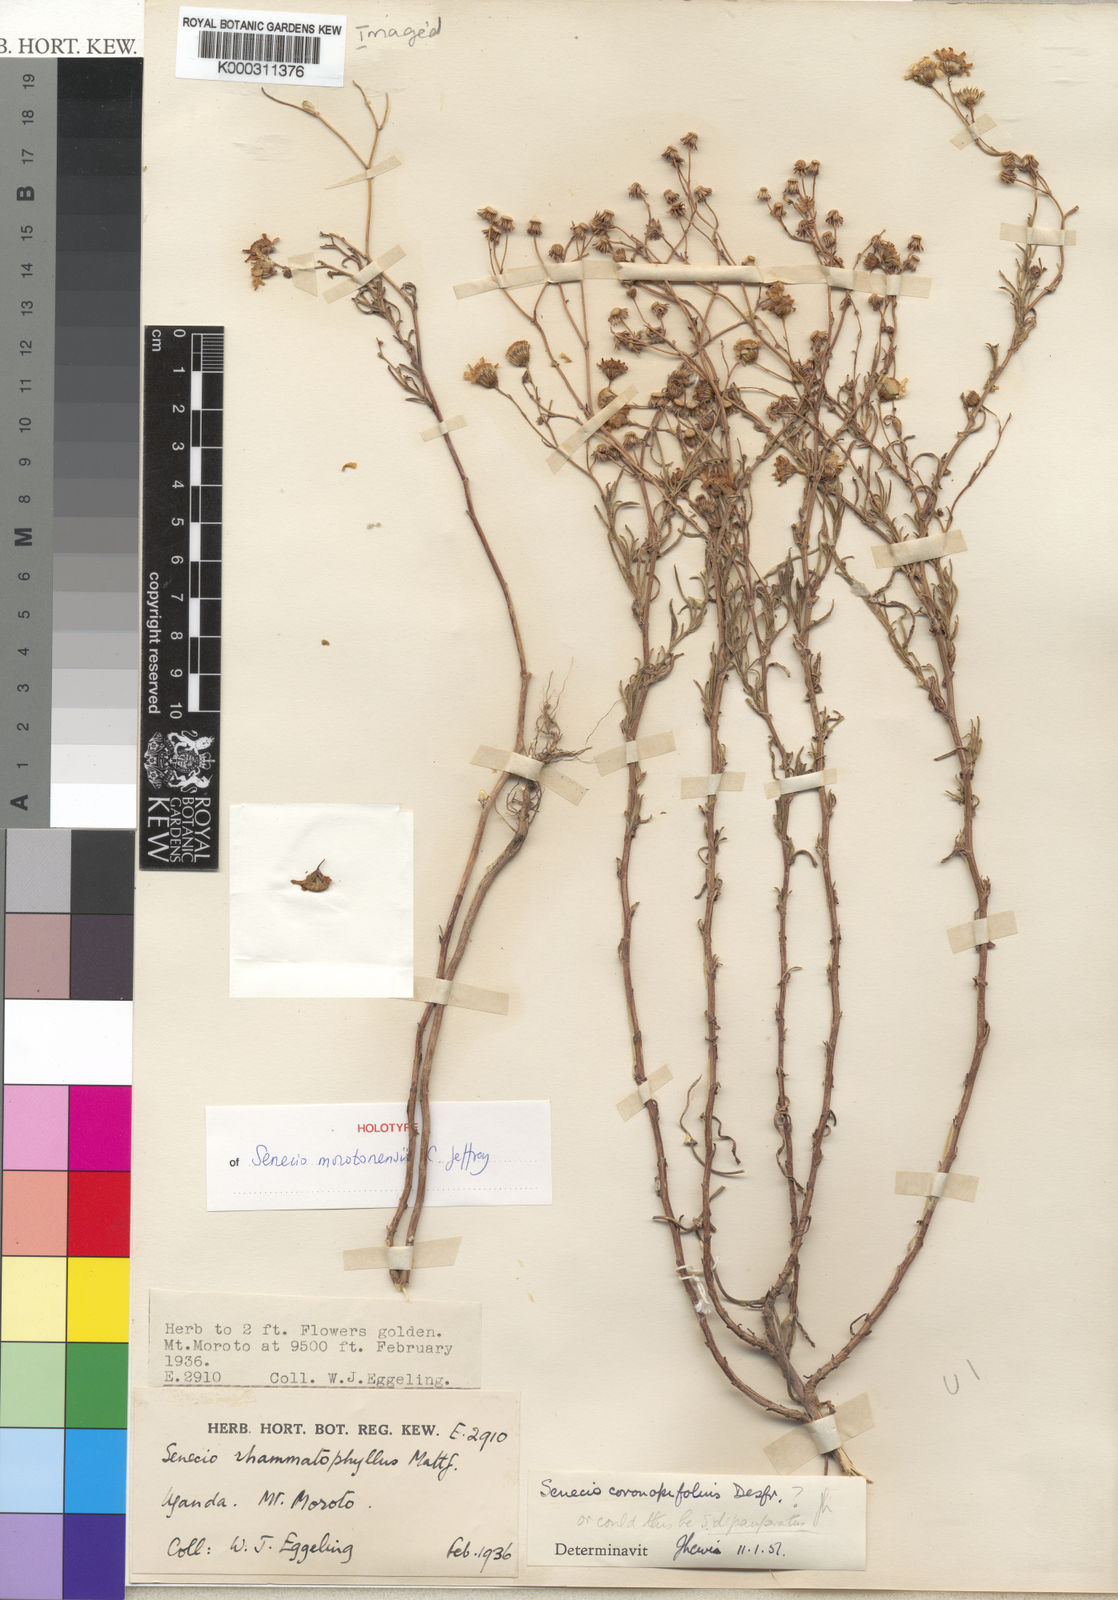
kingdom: Plantae
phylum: Tracheophyta
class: Magnoliopsida
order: Asterales
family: Asteraceae
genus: Senecio
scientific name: Senecio morotonensis
